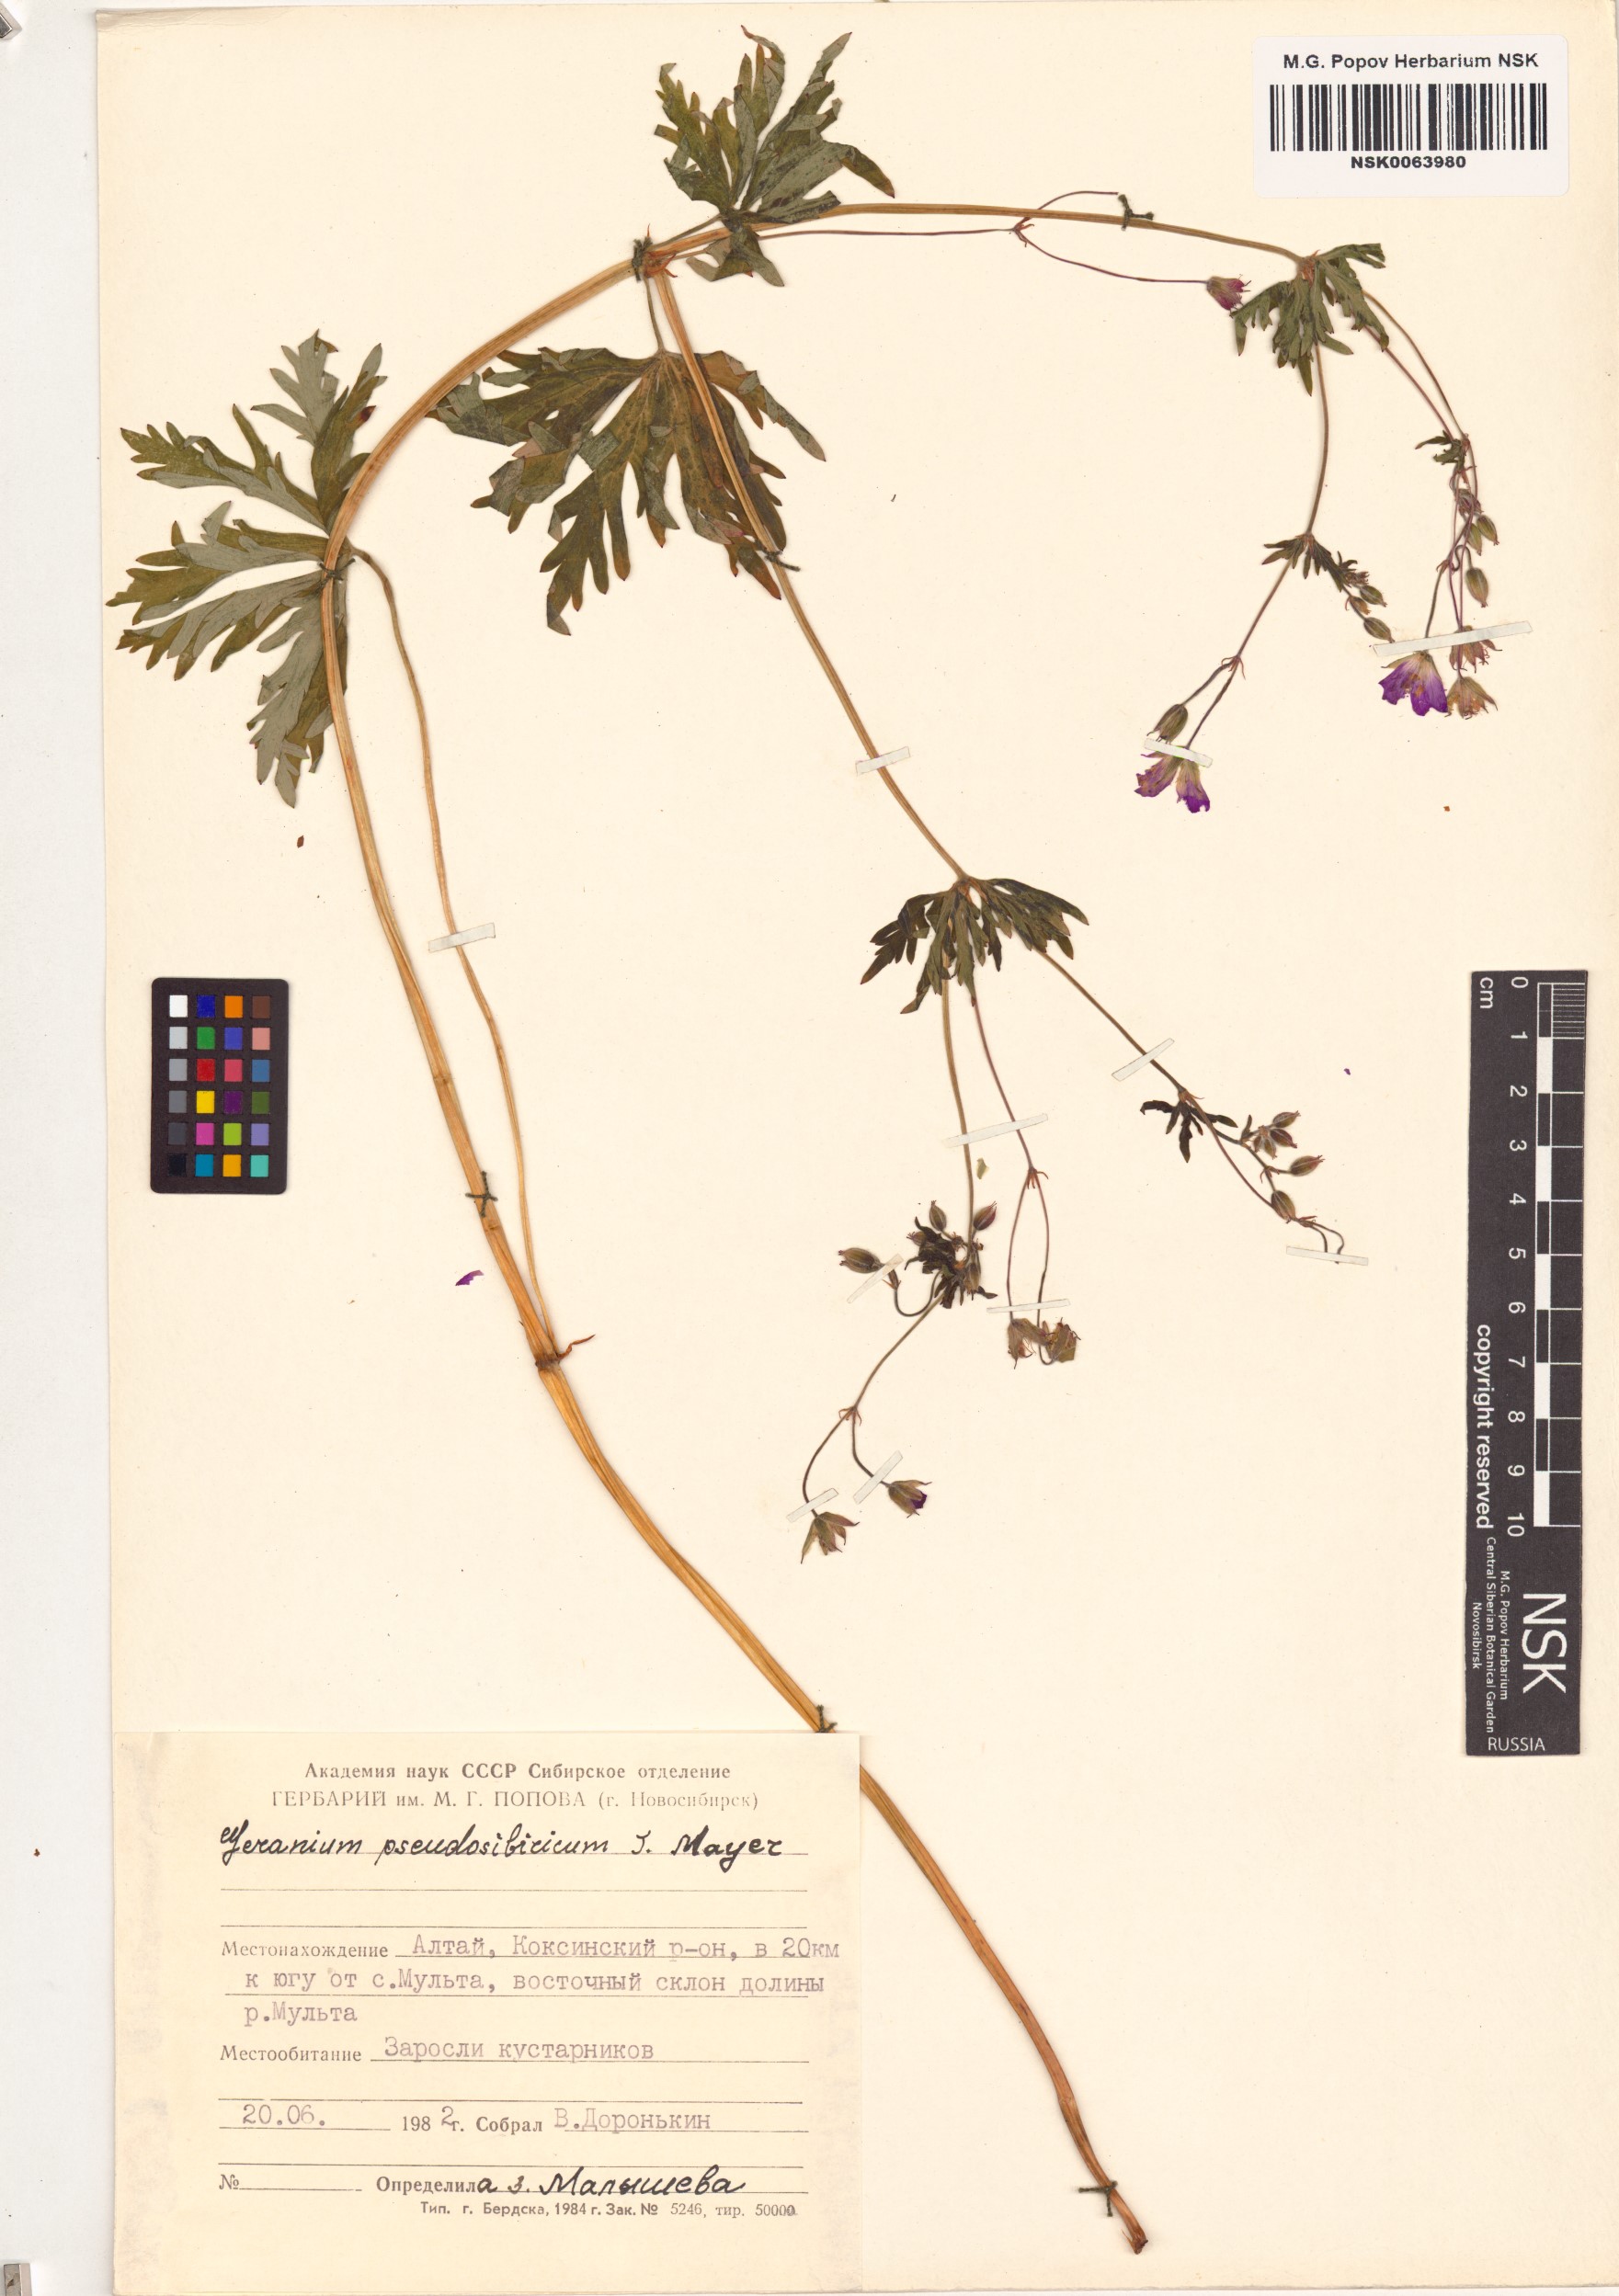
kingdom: Plantae
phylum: Tracheophyta
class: Magnoliopsida
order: Geraniales
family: Geraniaceae
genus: Geranium
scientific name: Geranium pseudosibiricum
